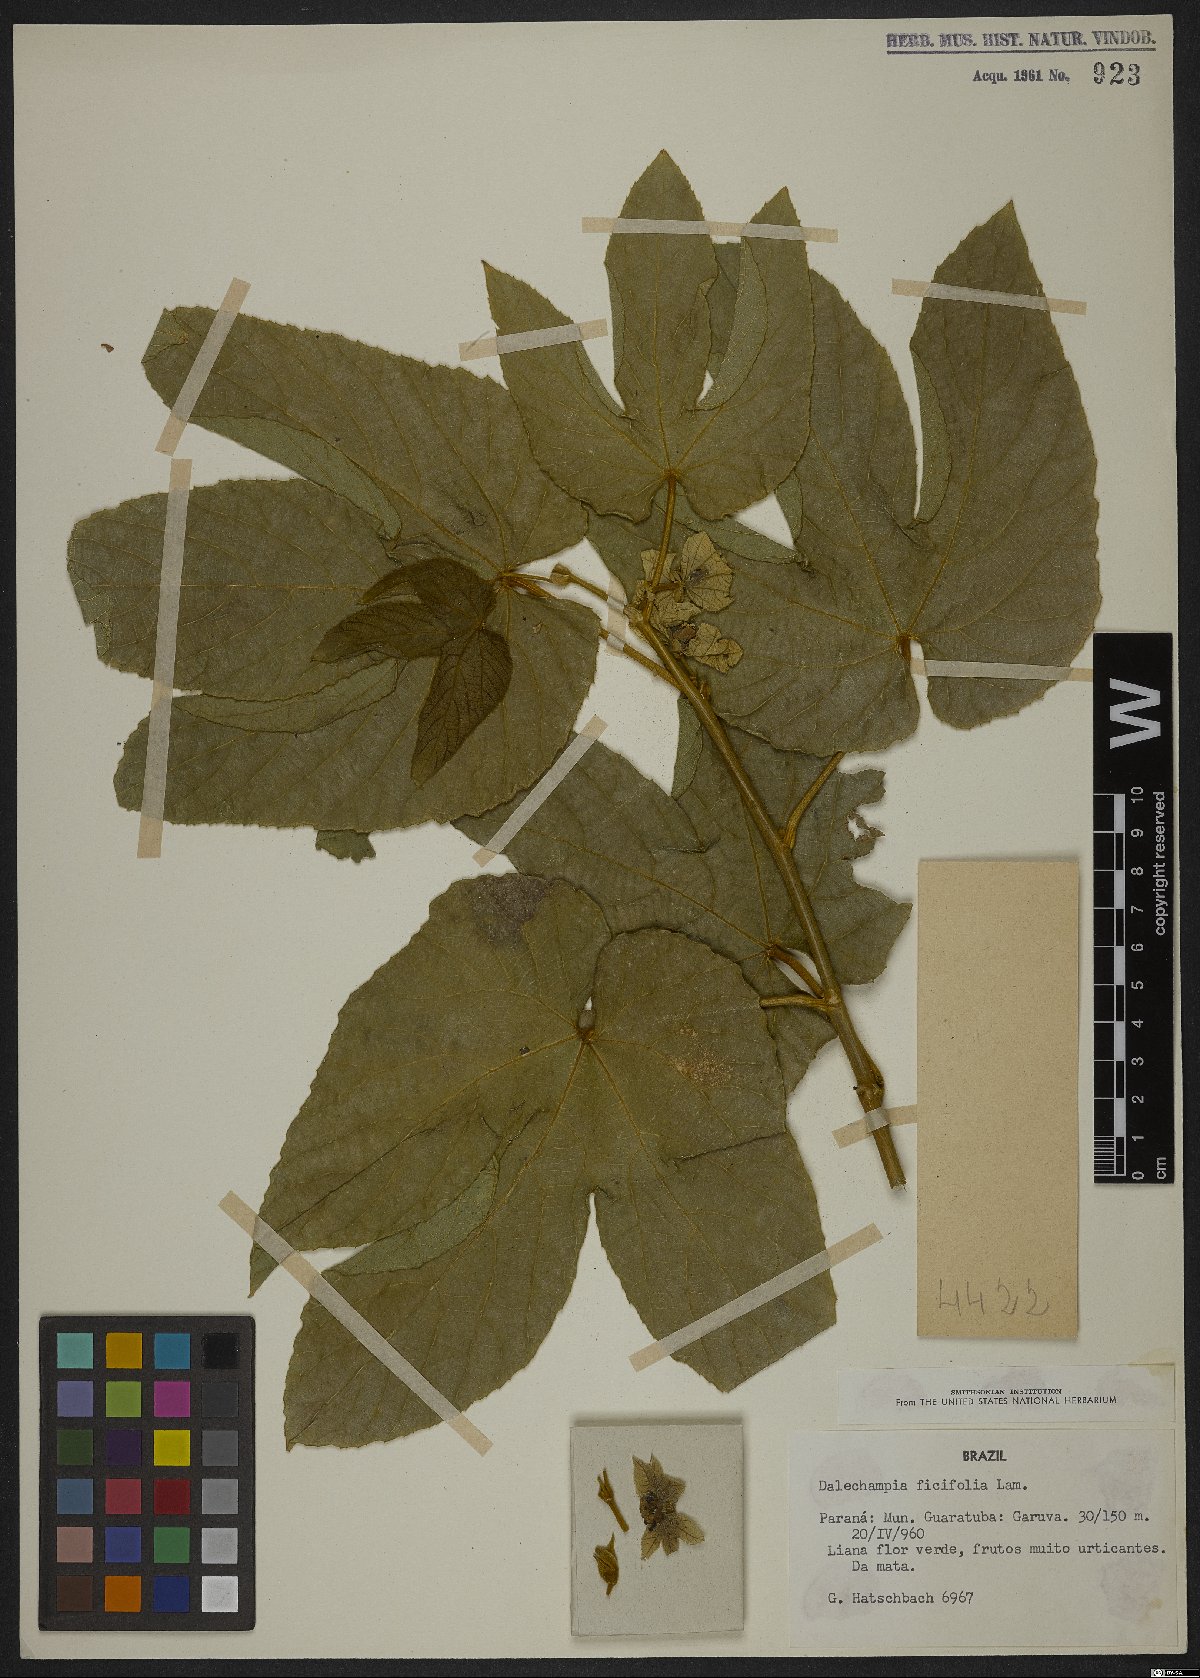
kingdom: Plantae
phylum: Tracheophyta
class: Magnoliopsida
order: Malpighiales
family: Euphorbiaceae
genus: Dalechampia
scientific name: Dalechampia ficifolia
